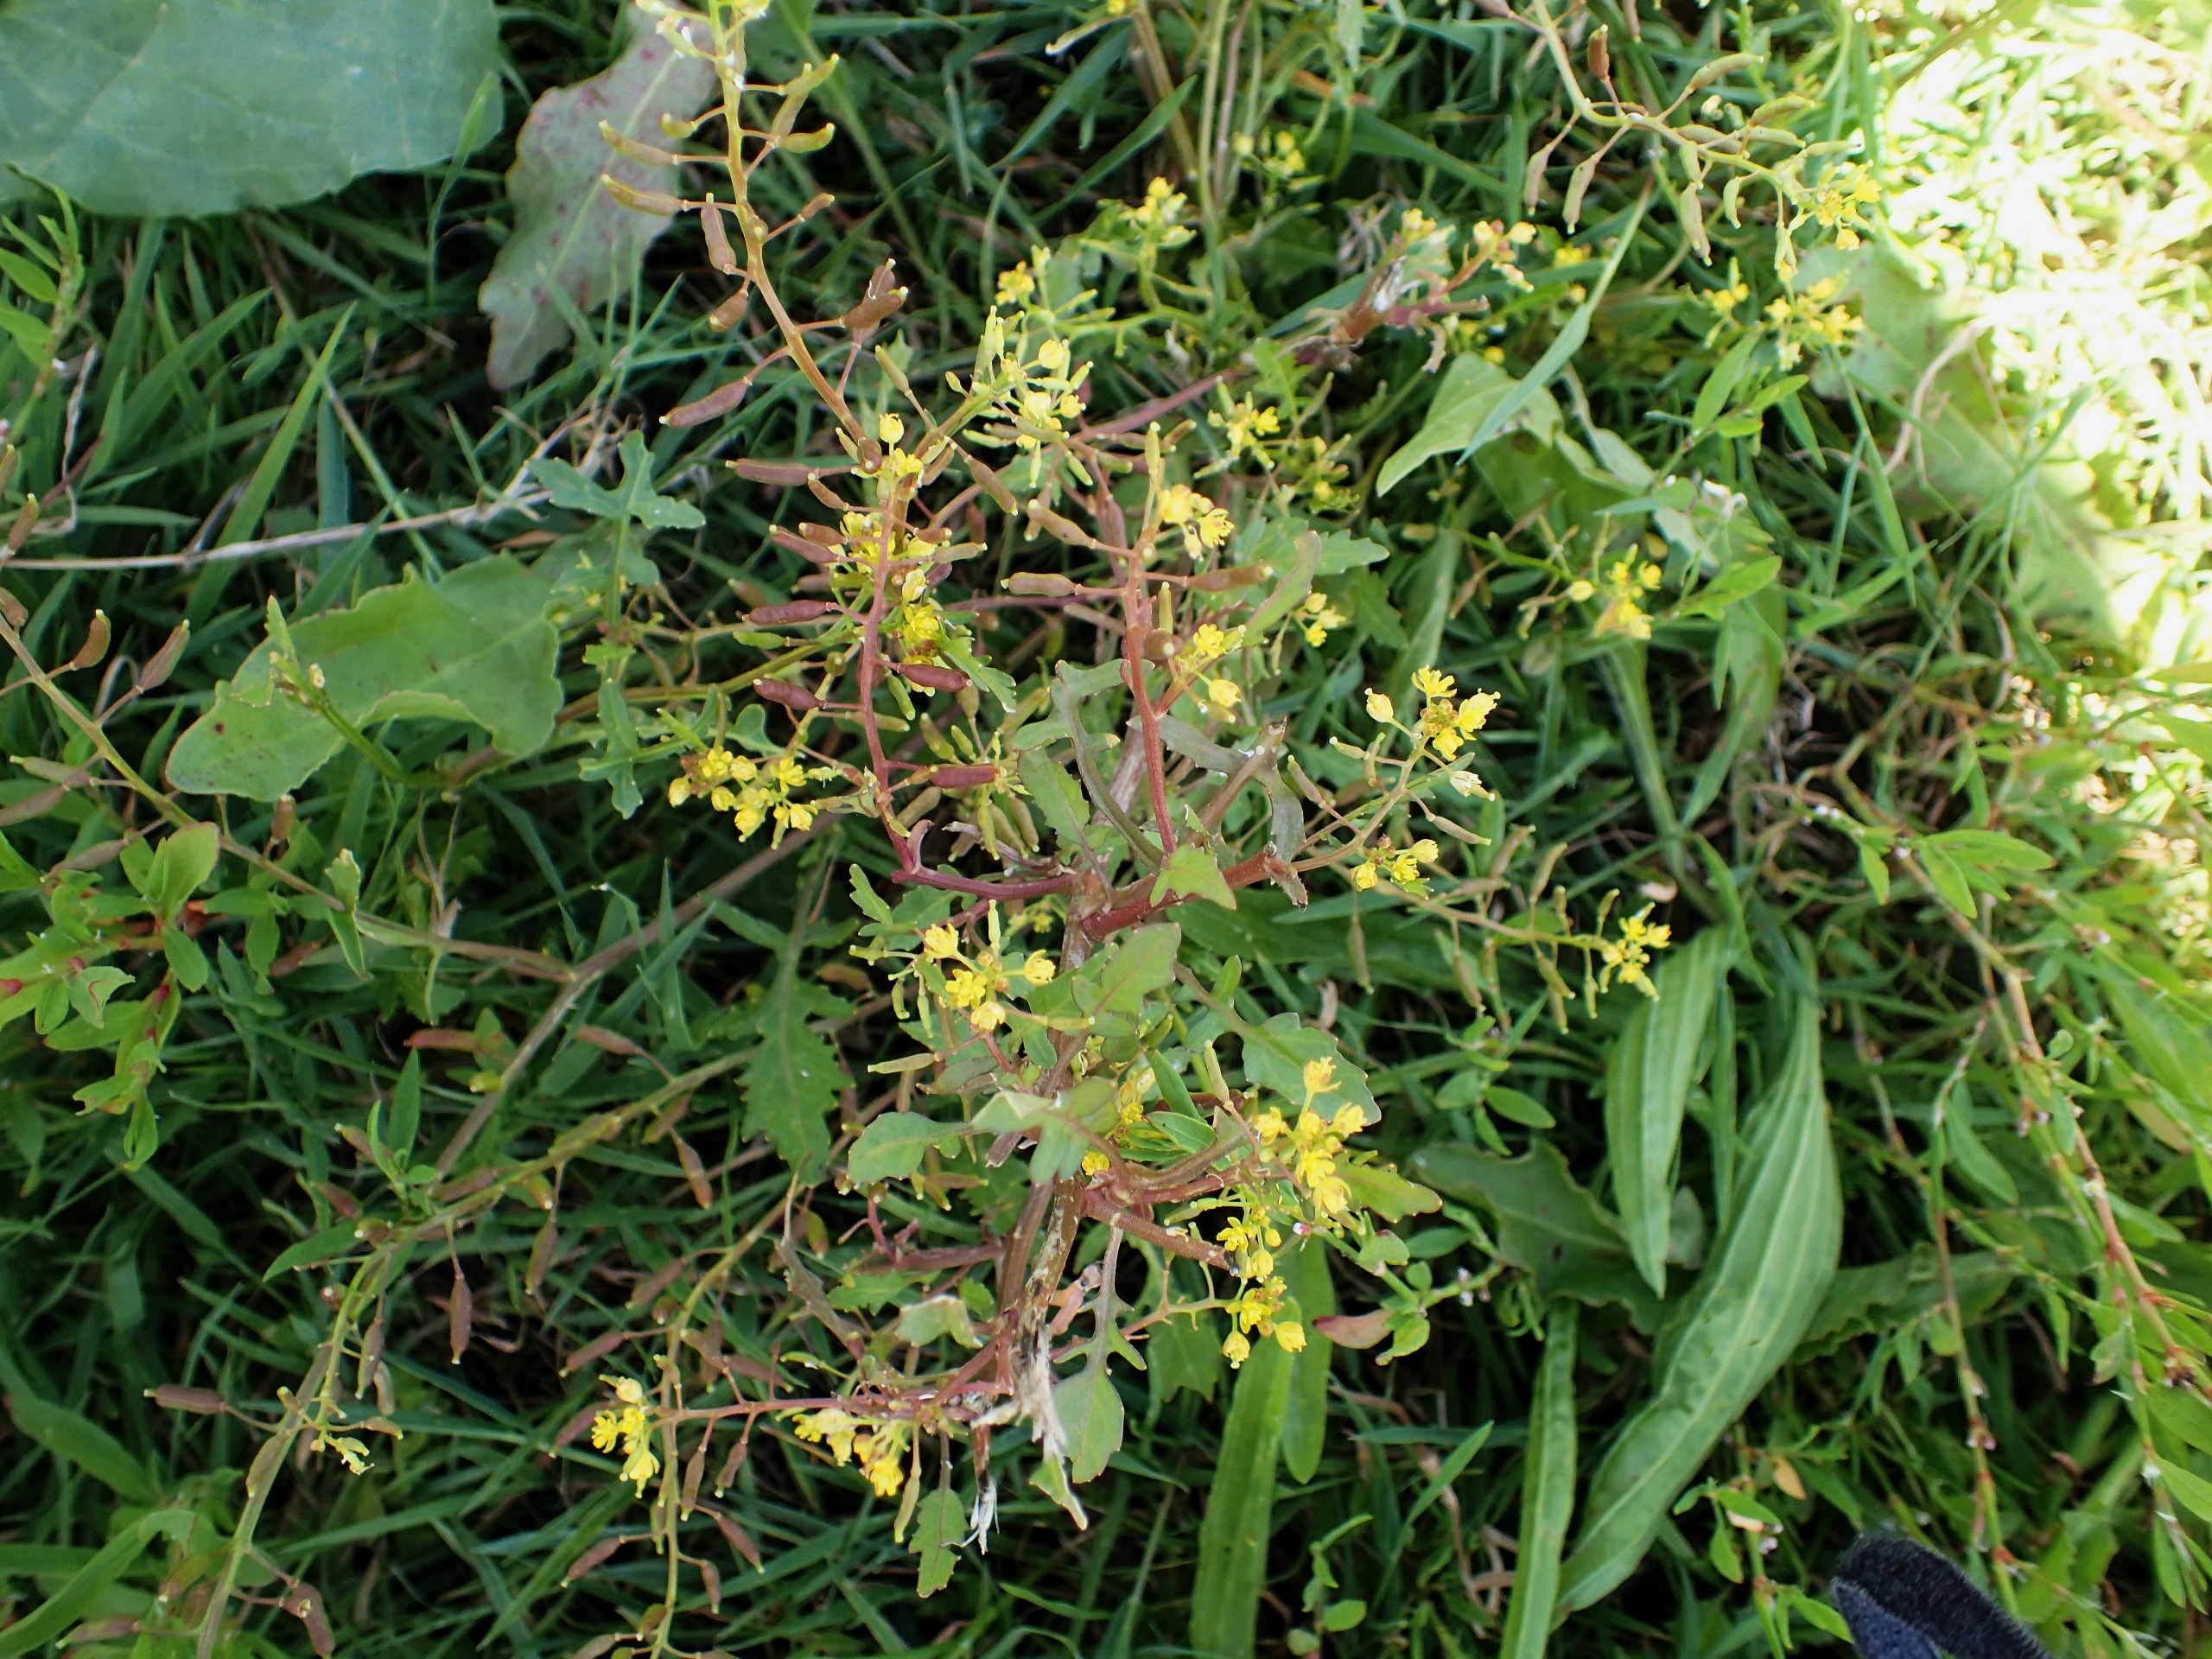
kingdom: Plantae
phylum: Tracheophyta
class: Magnoliopsida
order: Brassicales
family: Brassicaceae
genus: Rorippa
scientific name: Rorippa palustris
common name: Kær-guldkarse
